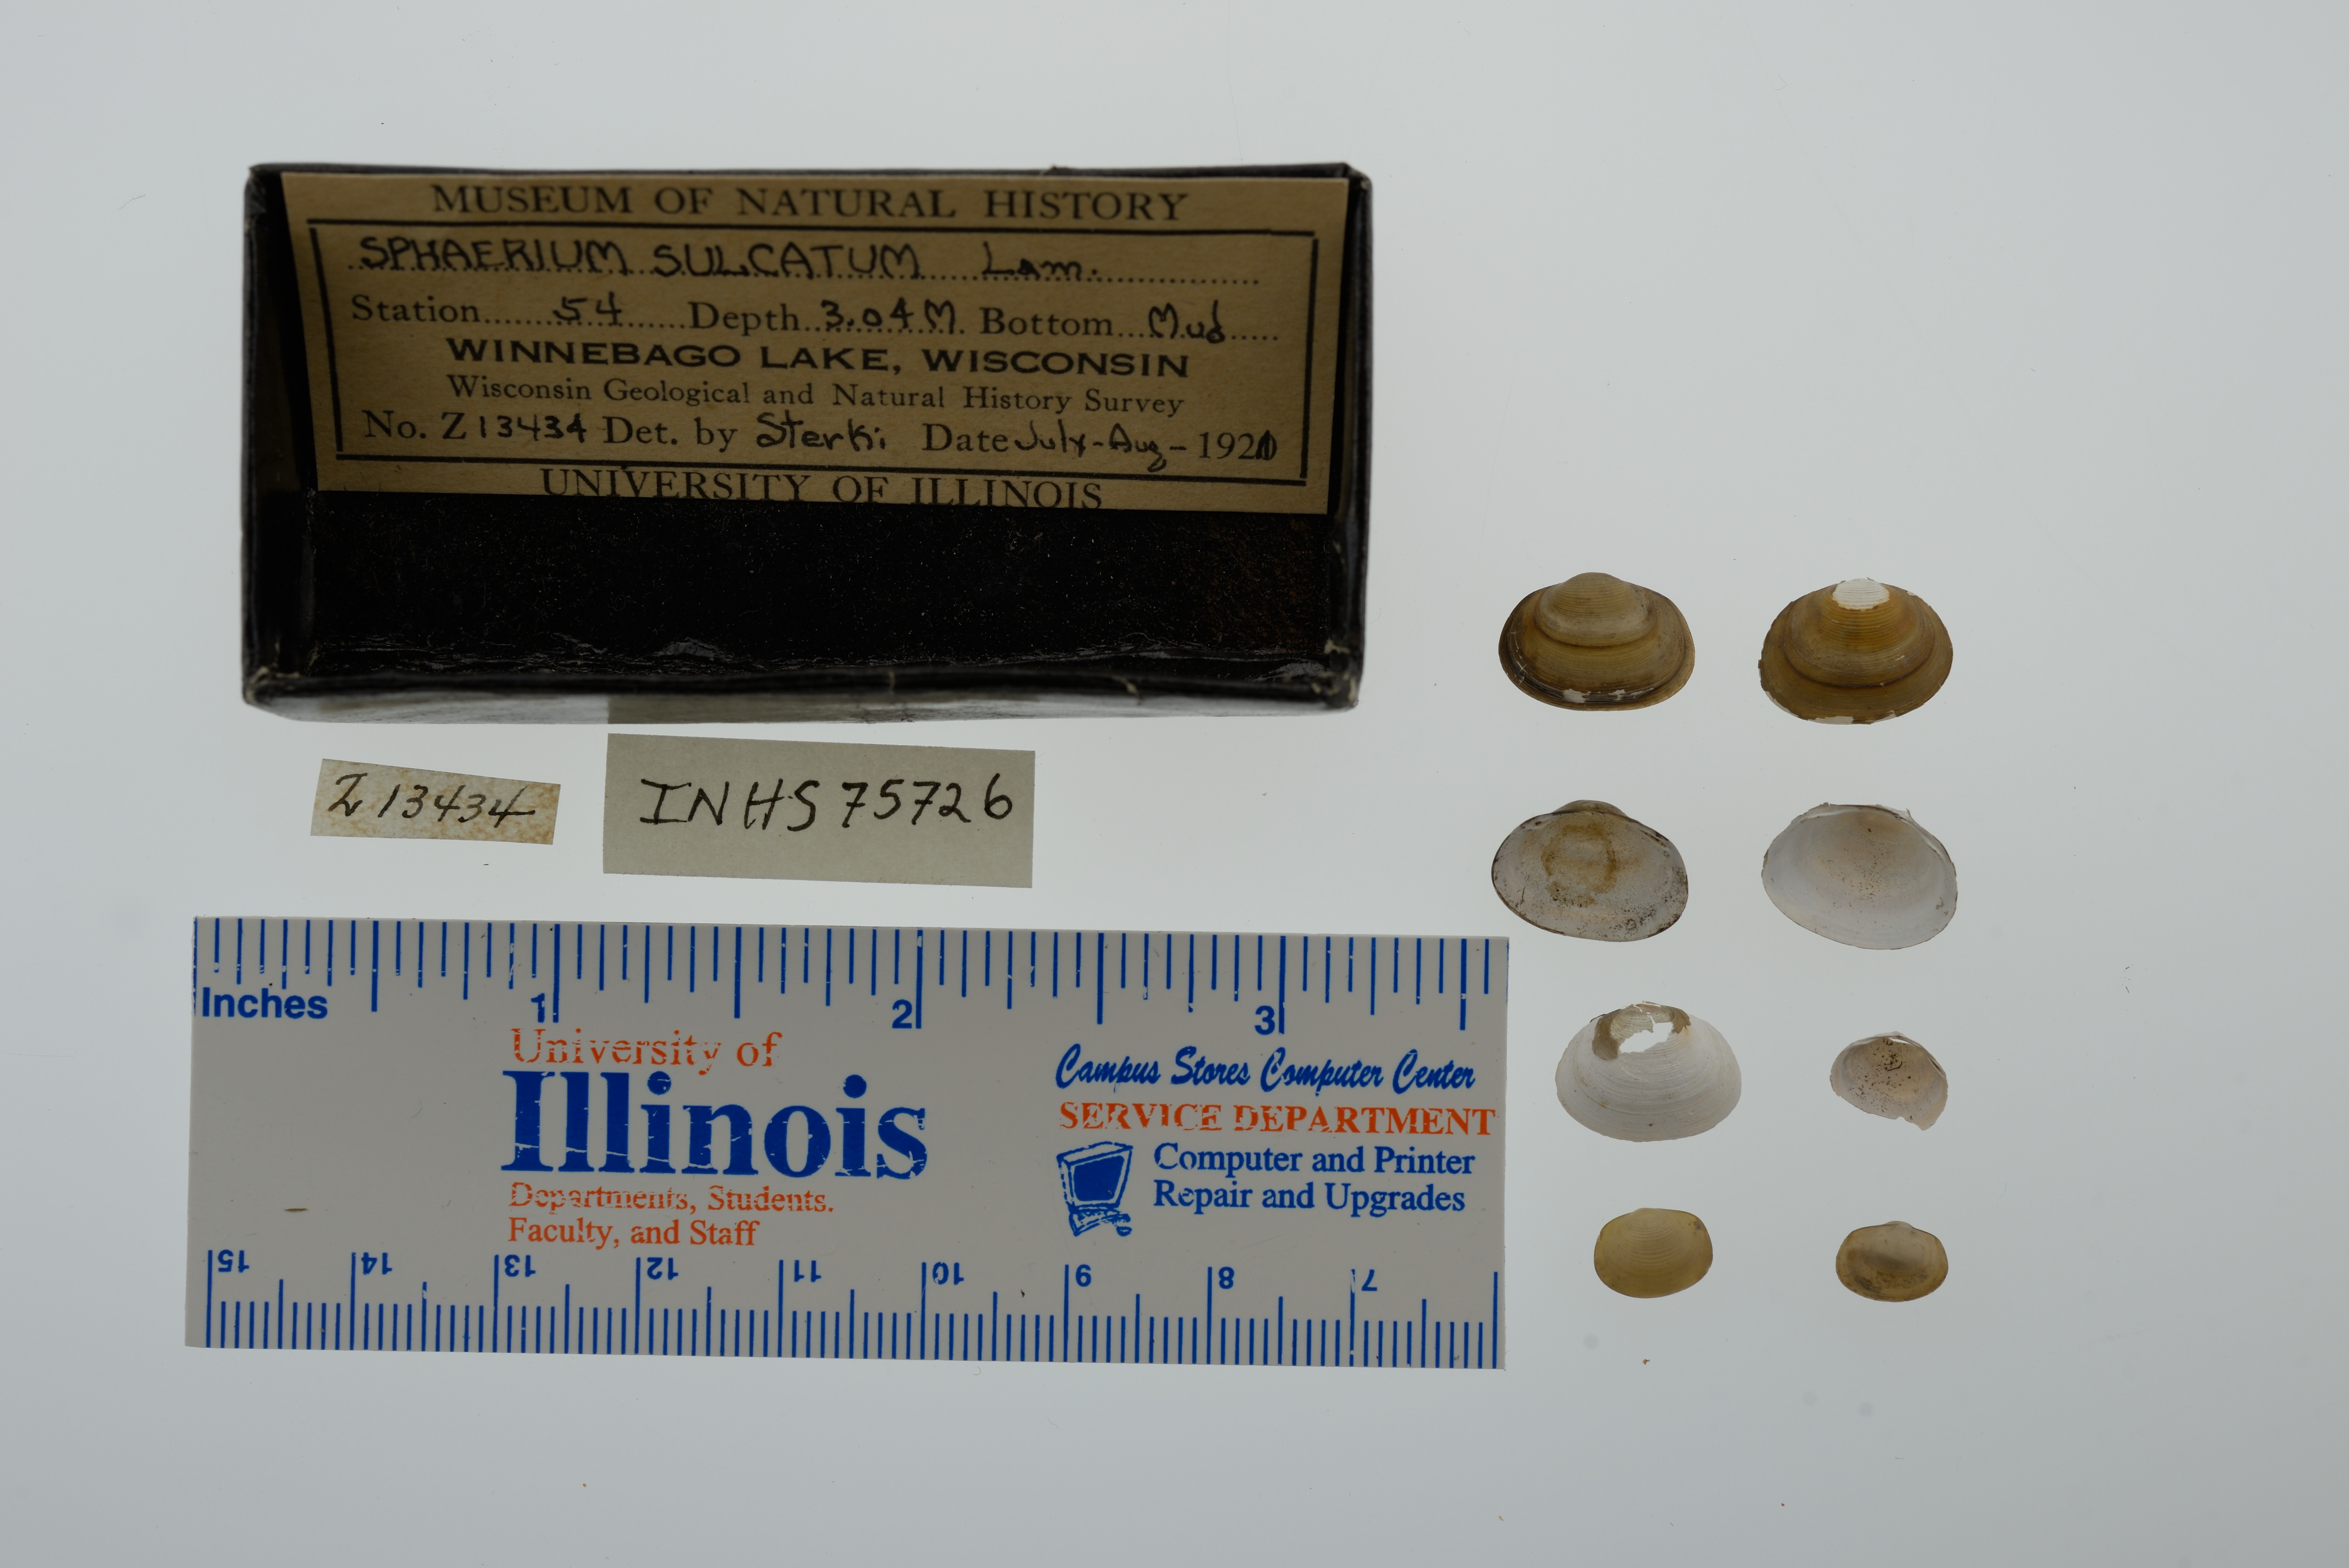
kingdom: Animalia
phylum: Mollusca
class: Bivalvia
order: Sphaeriida
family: Sphaeriidae
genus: Sphaerium
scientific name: Sphaerium simile
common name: Grooved fingernailclam
